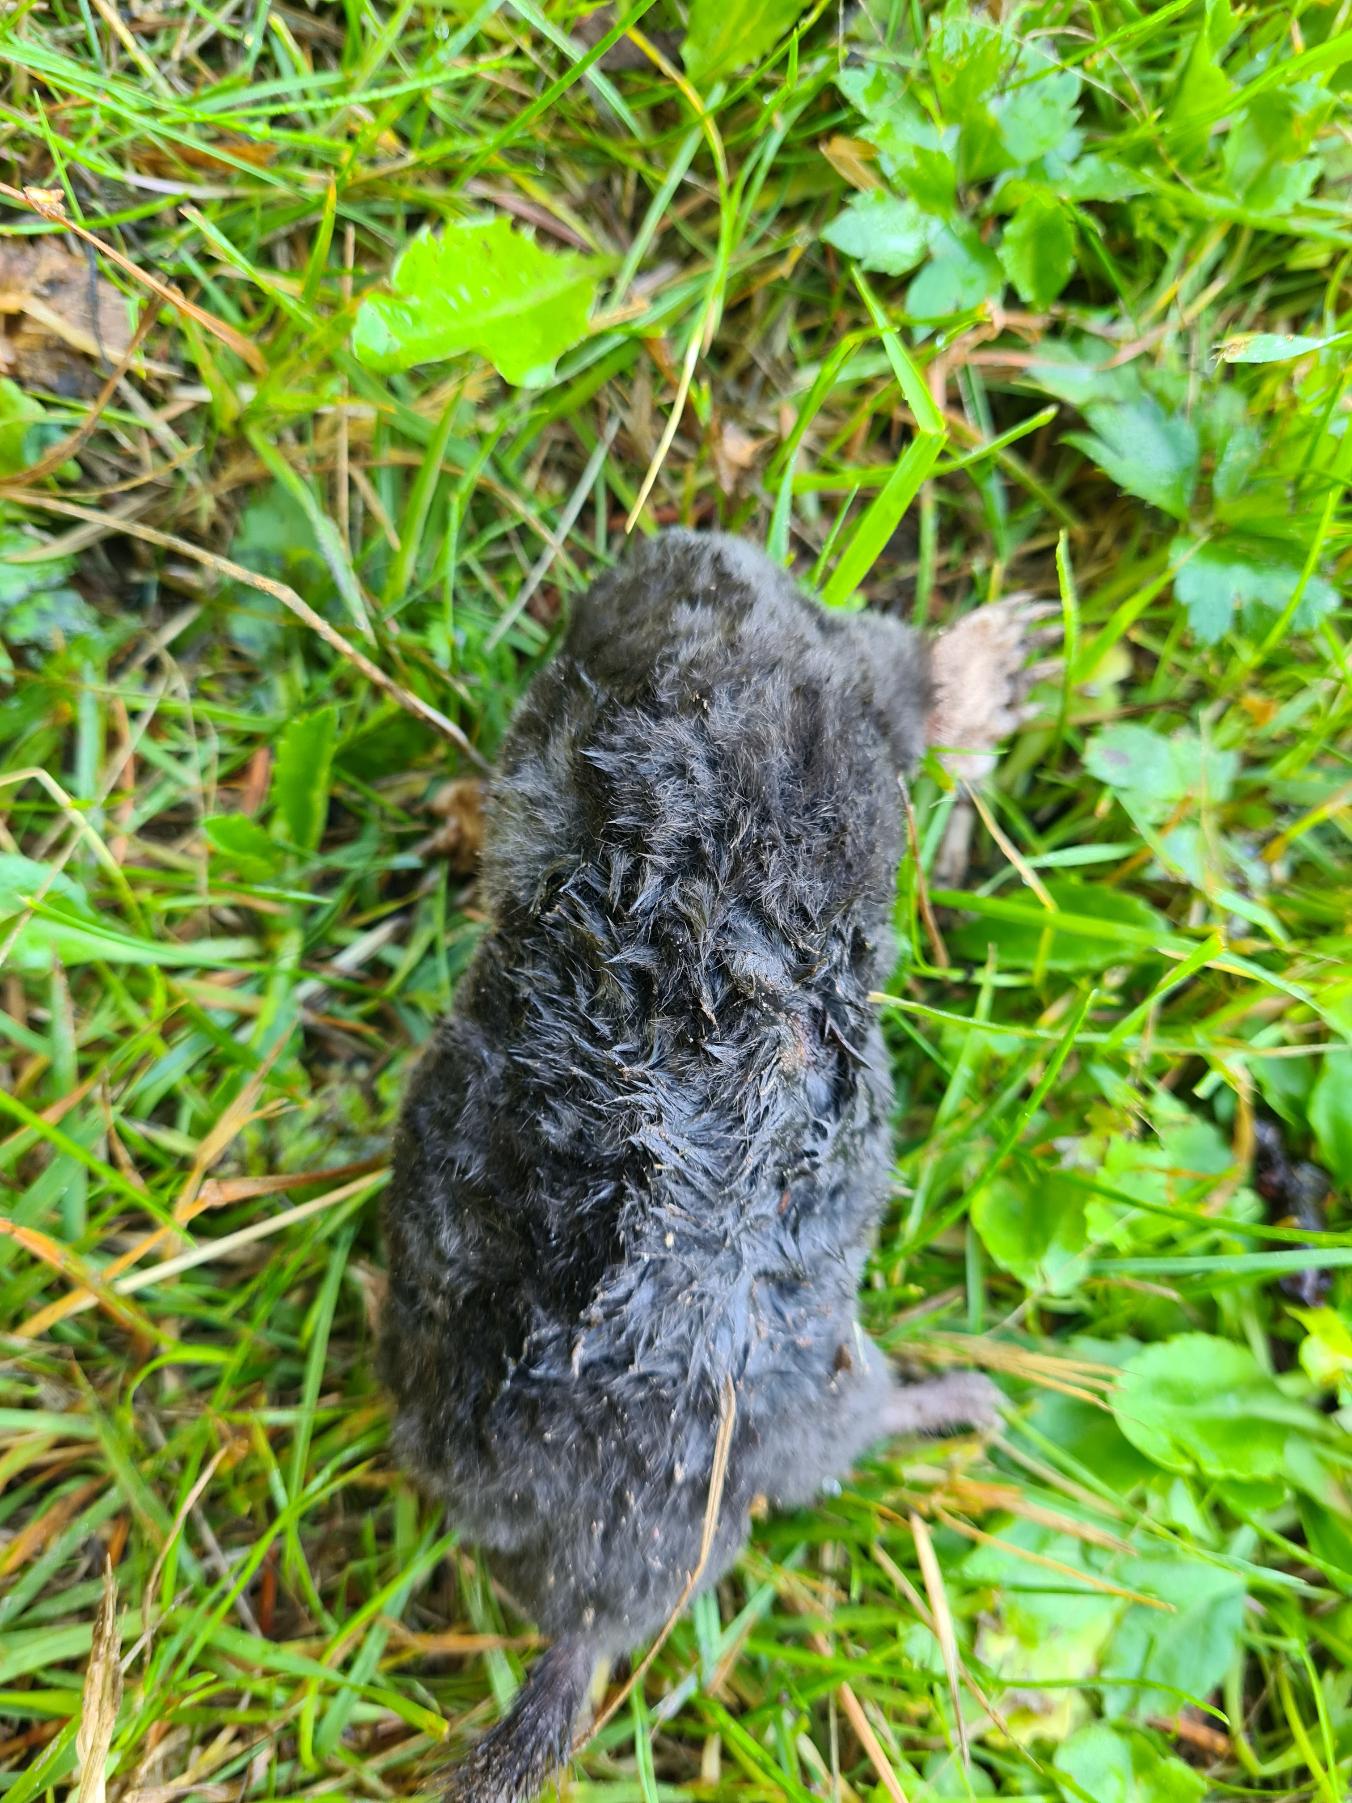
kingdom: Animalia
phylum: Chordata
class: Mammalia
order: Soricomorpha
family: Talpidae
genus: Talpa
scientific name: Talpa europaea
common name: Muldvarp
